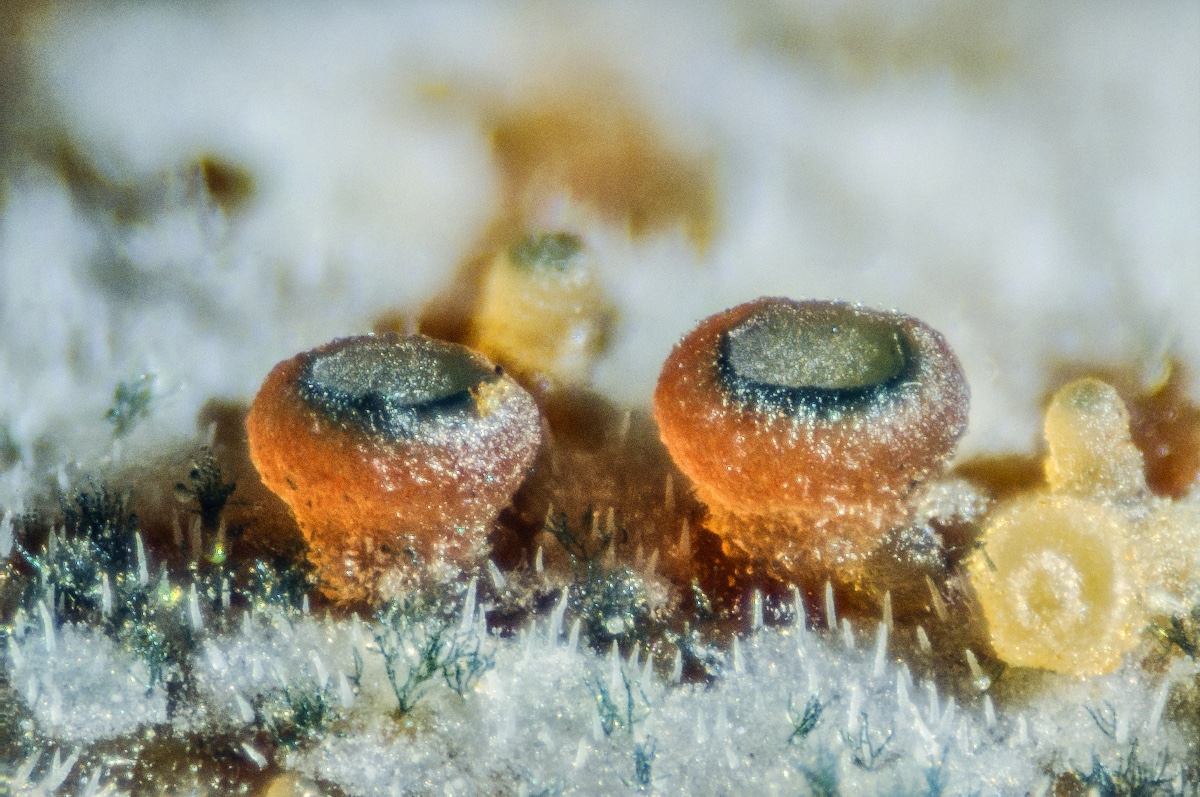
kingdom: Fungi
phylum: Ascomycota
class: Leotiomycetes
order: Helotiales
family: Gelatinodiscaceae
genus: Ascocoryne
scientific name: Ascocoryne lilacina
